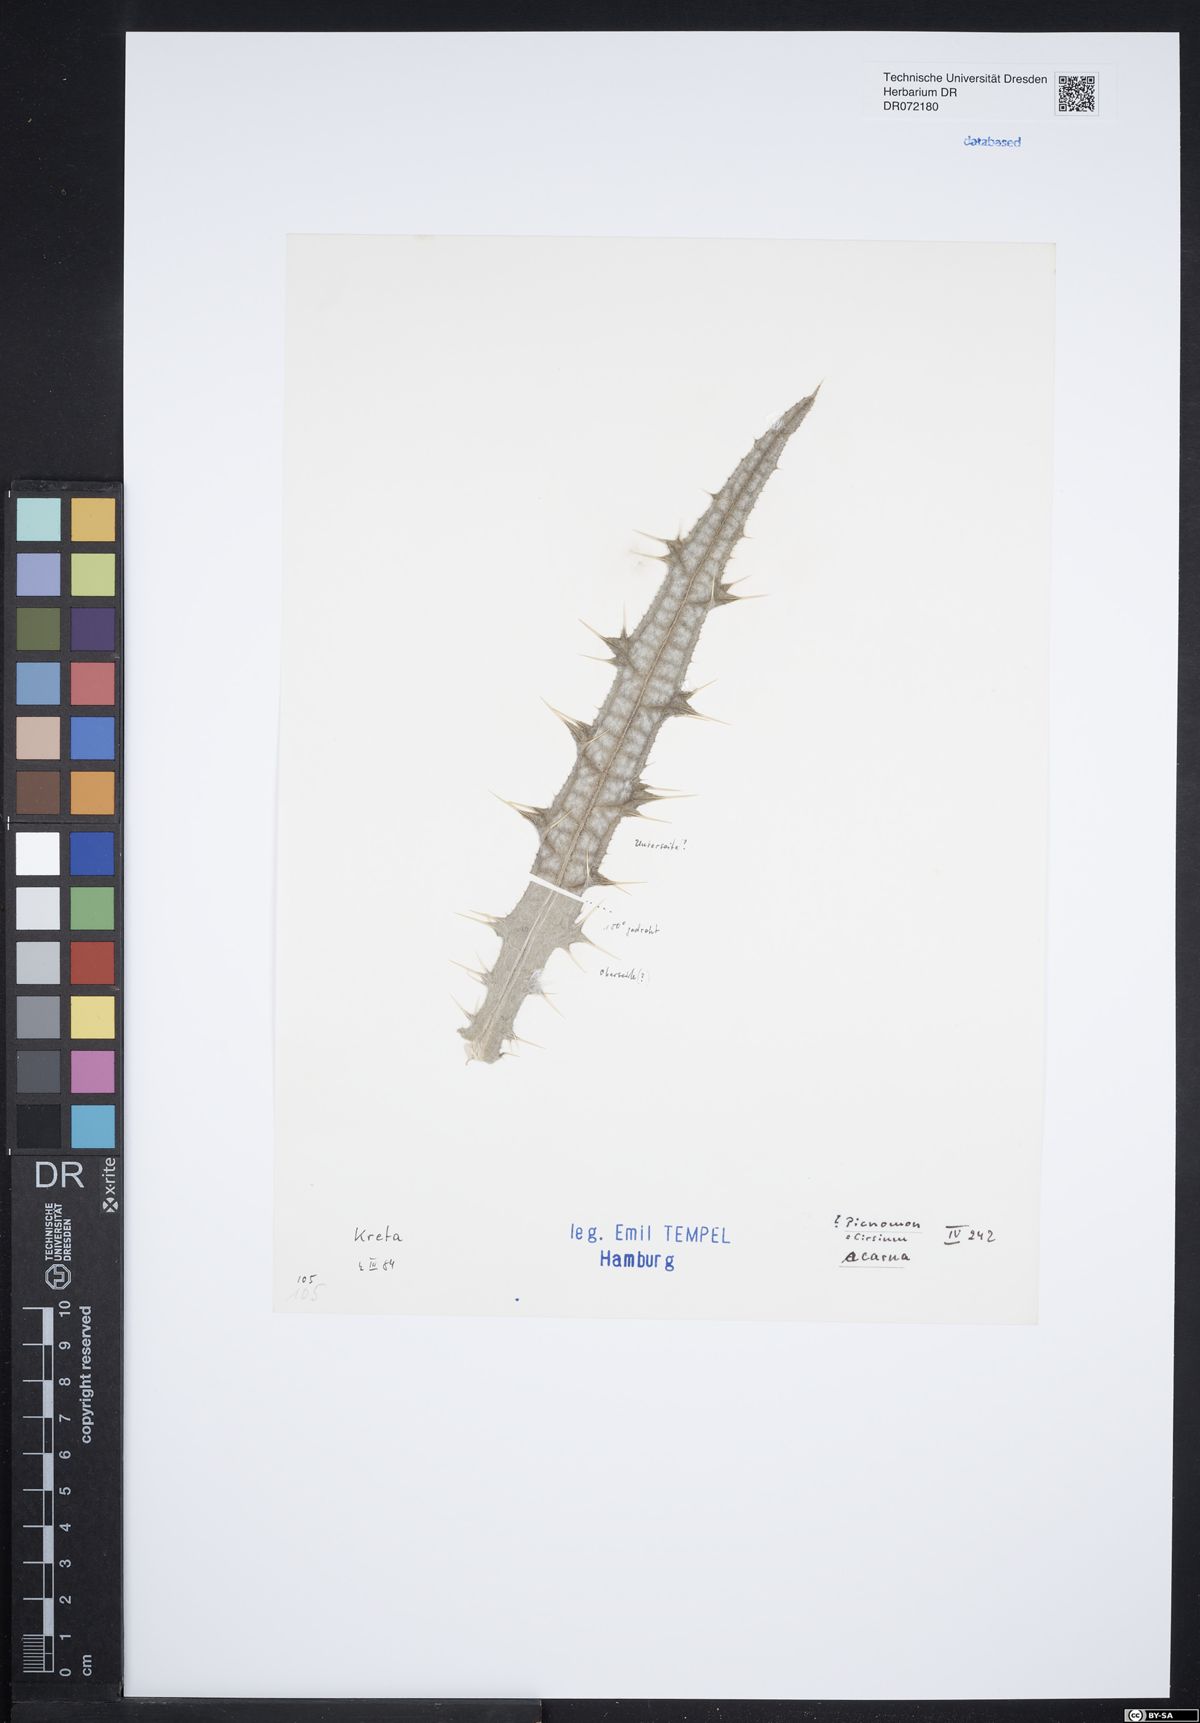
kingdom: Plantae
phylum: Tracheophyta
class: Magnoliopsida
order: Asterales
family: Asteraceae
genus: Picnomon
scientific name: Picnomon acarna
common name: Soldier thistle
